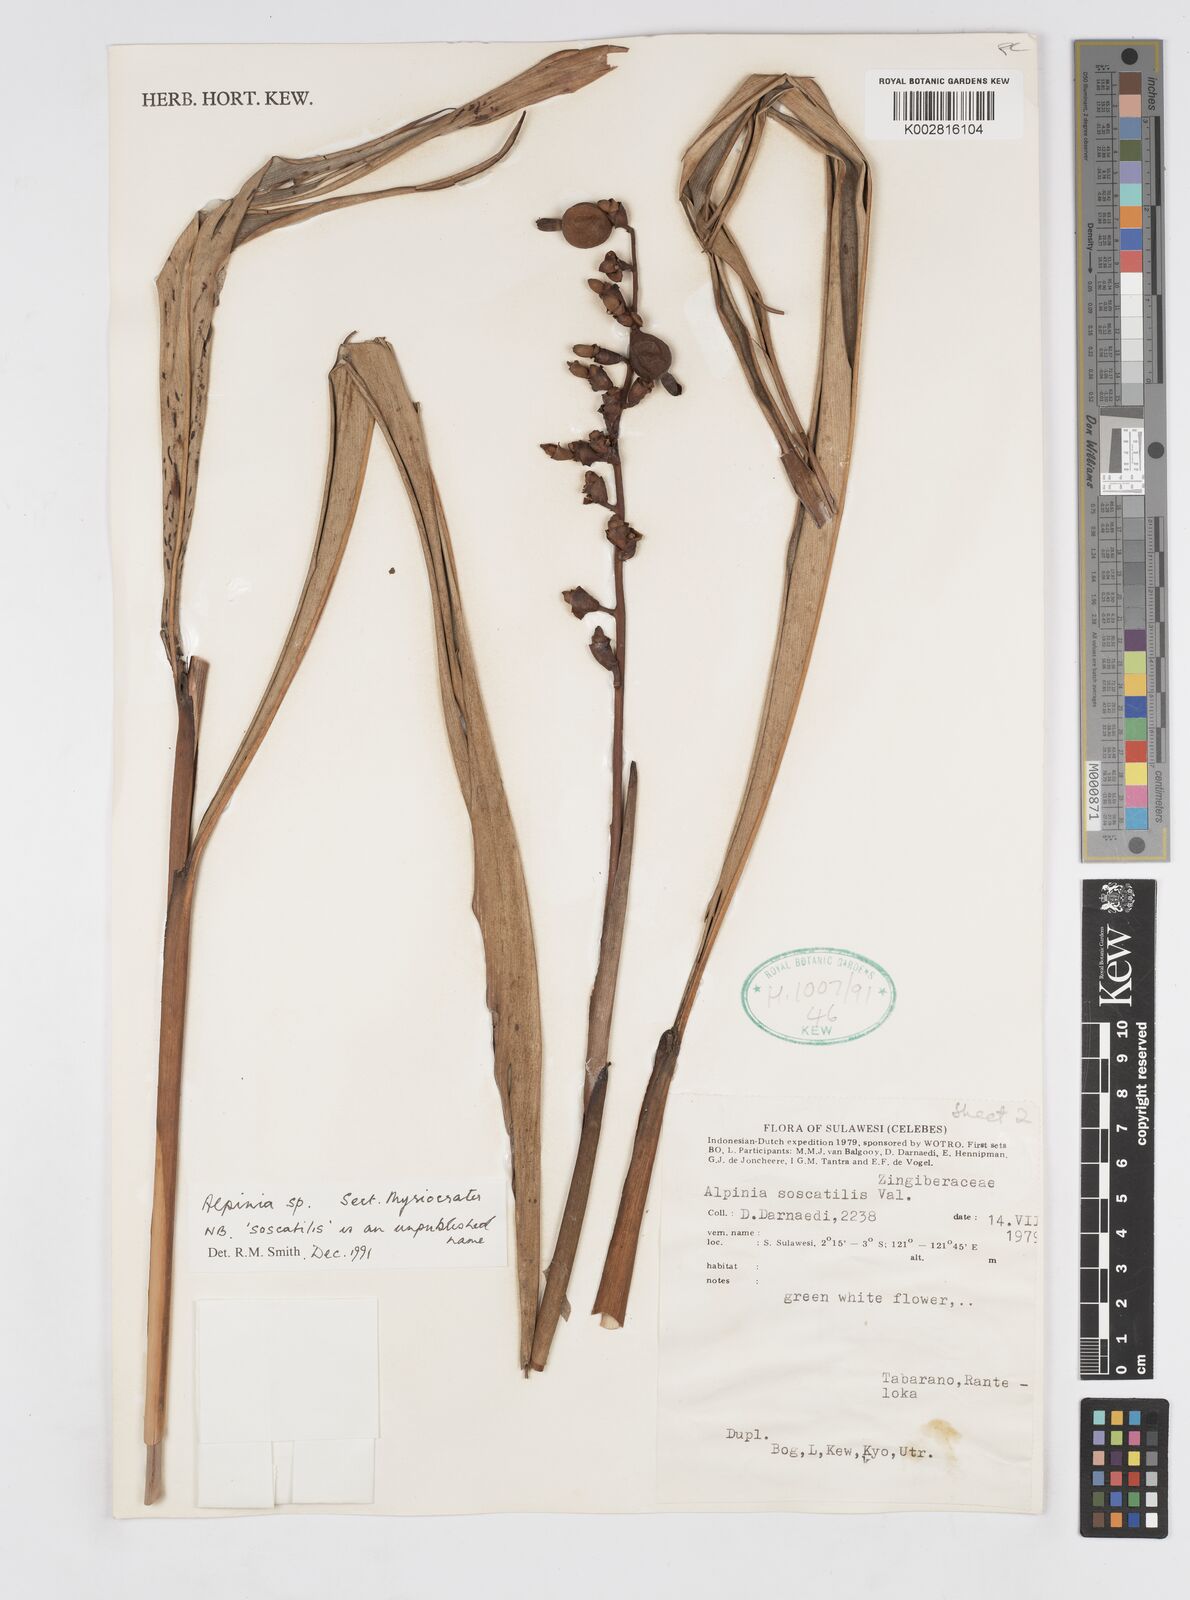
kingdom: Plantae
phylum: Tracheophyta
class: Liliopsida
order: Zingiberales
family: Zingiberaceae
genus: Alpinia
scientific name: Alpinia
